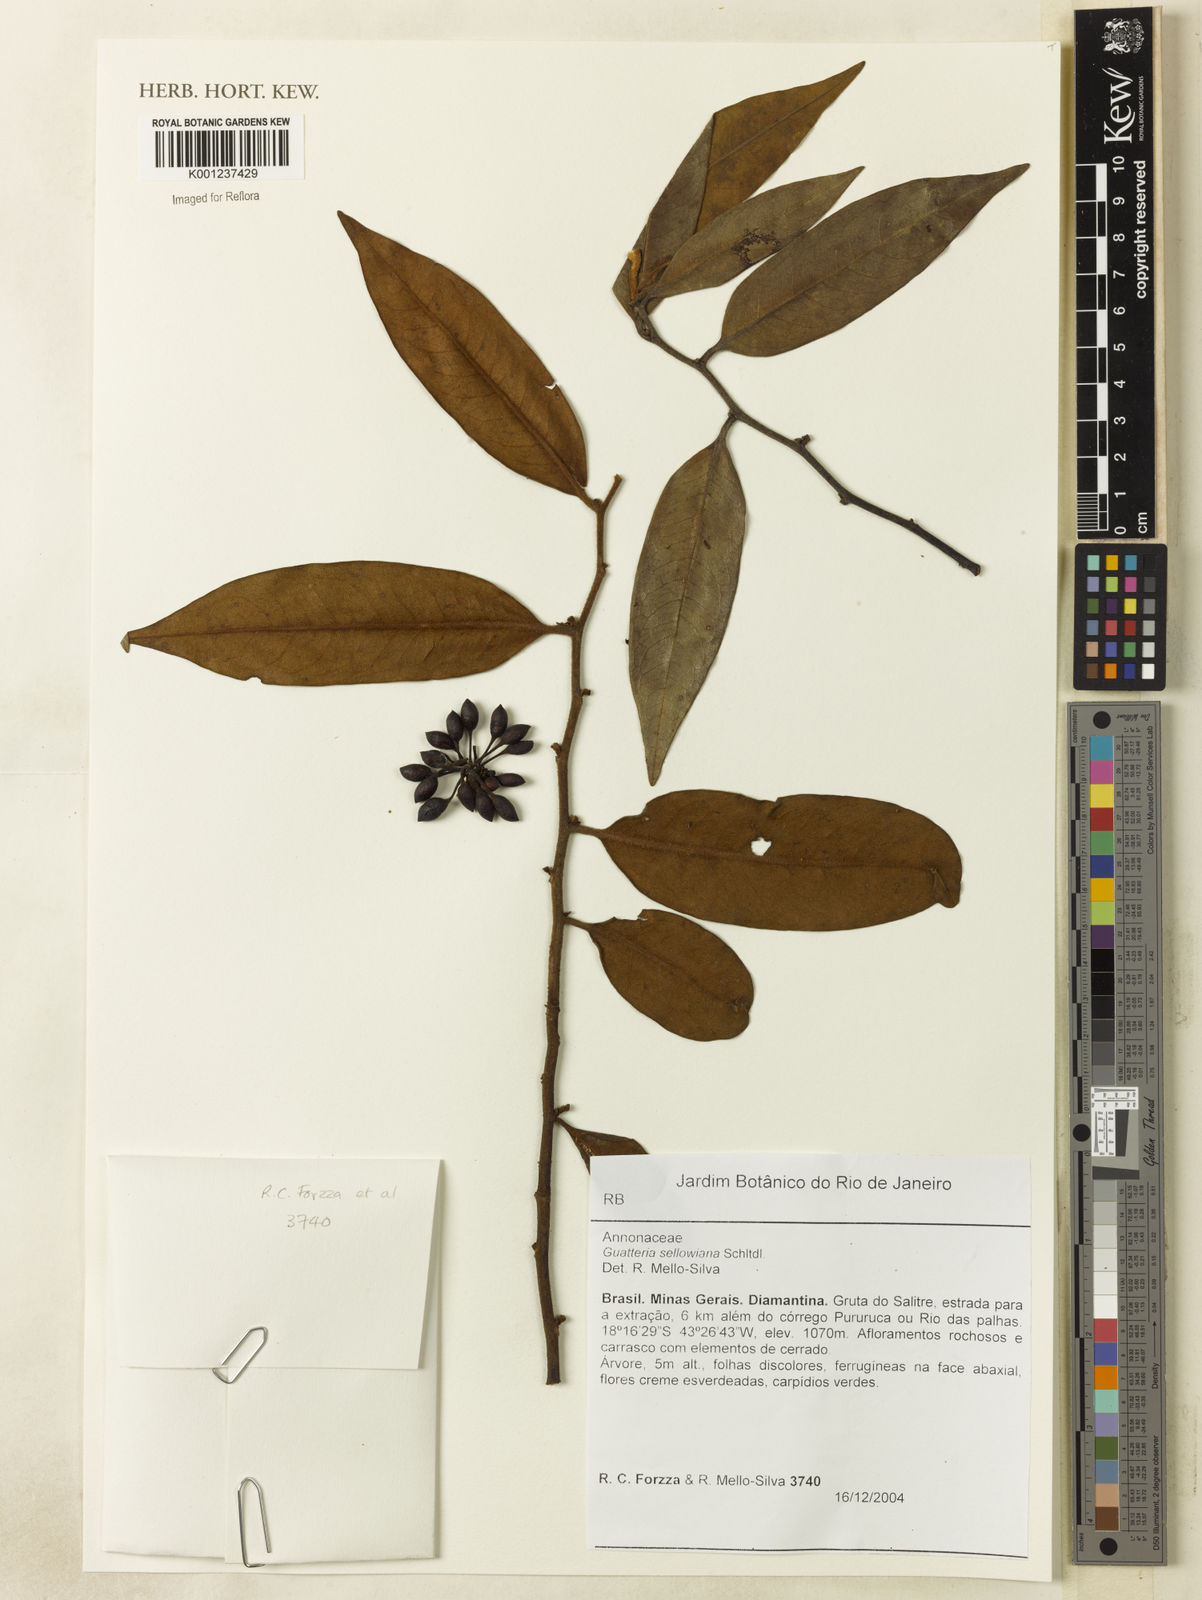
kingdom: Plantae
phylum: Tracheophyta
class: Magnoliopsida
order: Magnoliales
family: Annonaceae
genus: Guatteria
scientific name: Guatteria sellowiana
